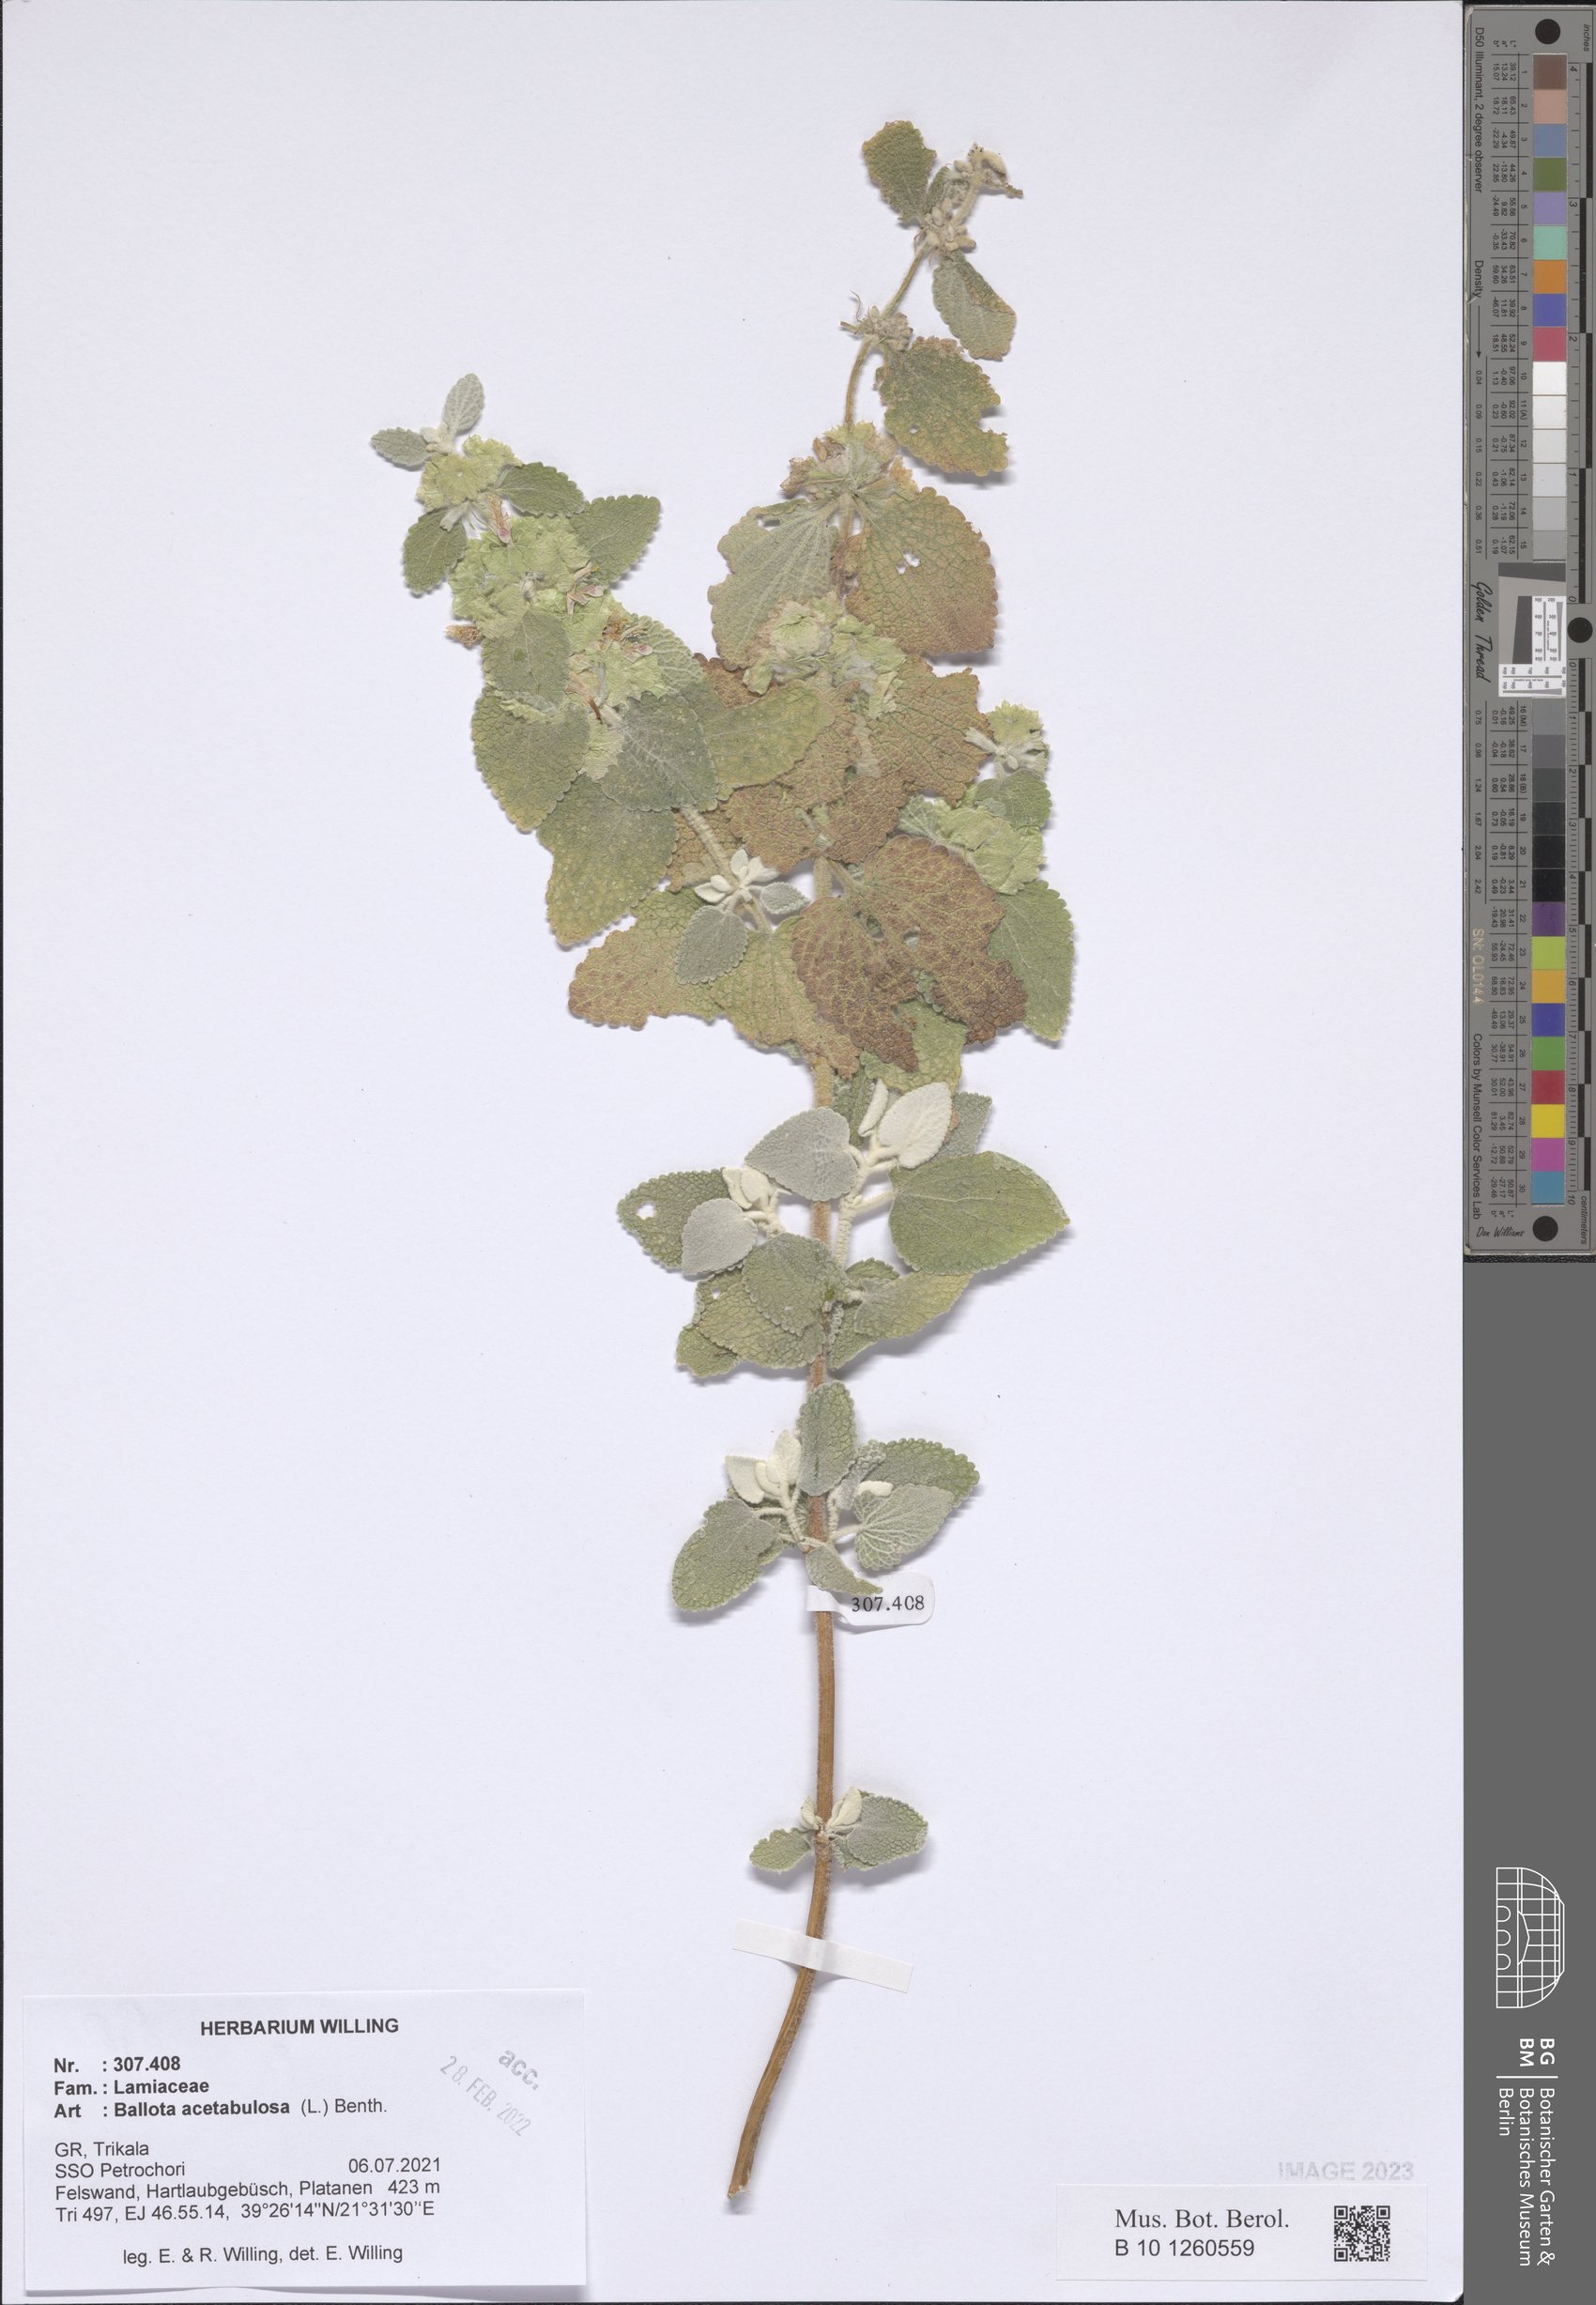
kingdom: Plantae
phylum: Tracheophyta
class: Magnoliopsida
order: Lamiales
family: Lamiaceae
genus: Pseudodictamnus
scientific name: Pseudodictamnus acetabulosus
